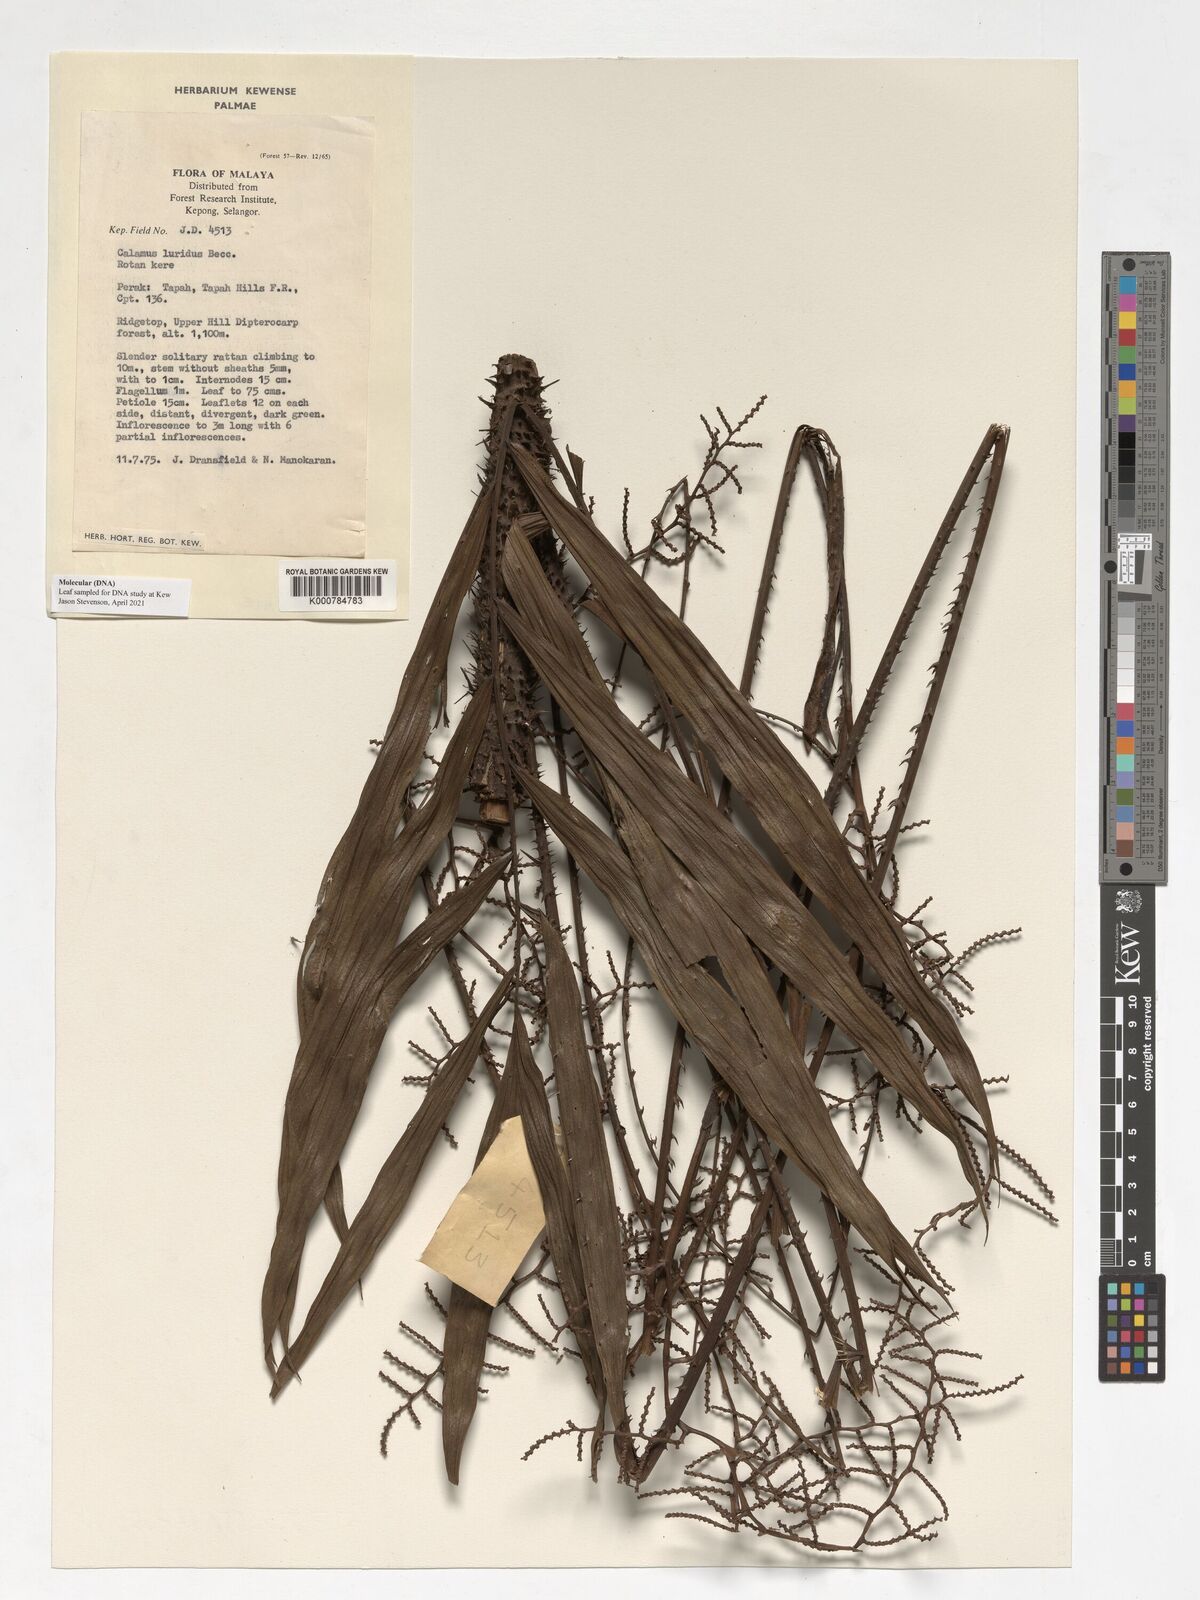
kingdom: Plantae
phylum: Tracheophyta
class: Liliopsida
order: Arecales
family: Arecaceae
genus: Calamus
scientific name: Calamus micranthus
